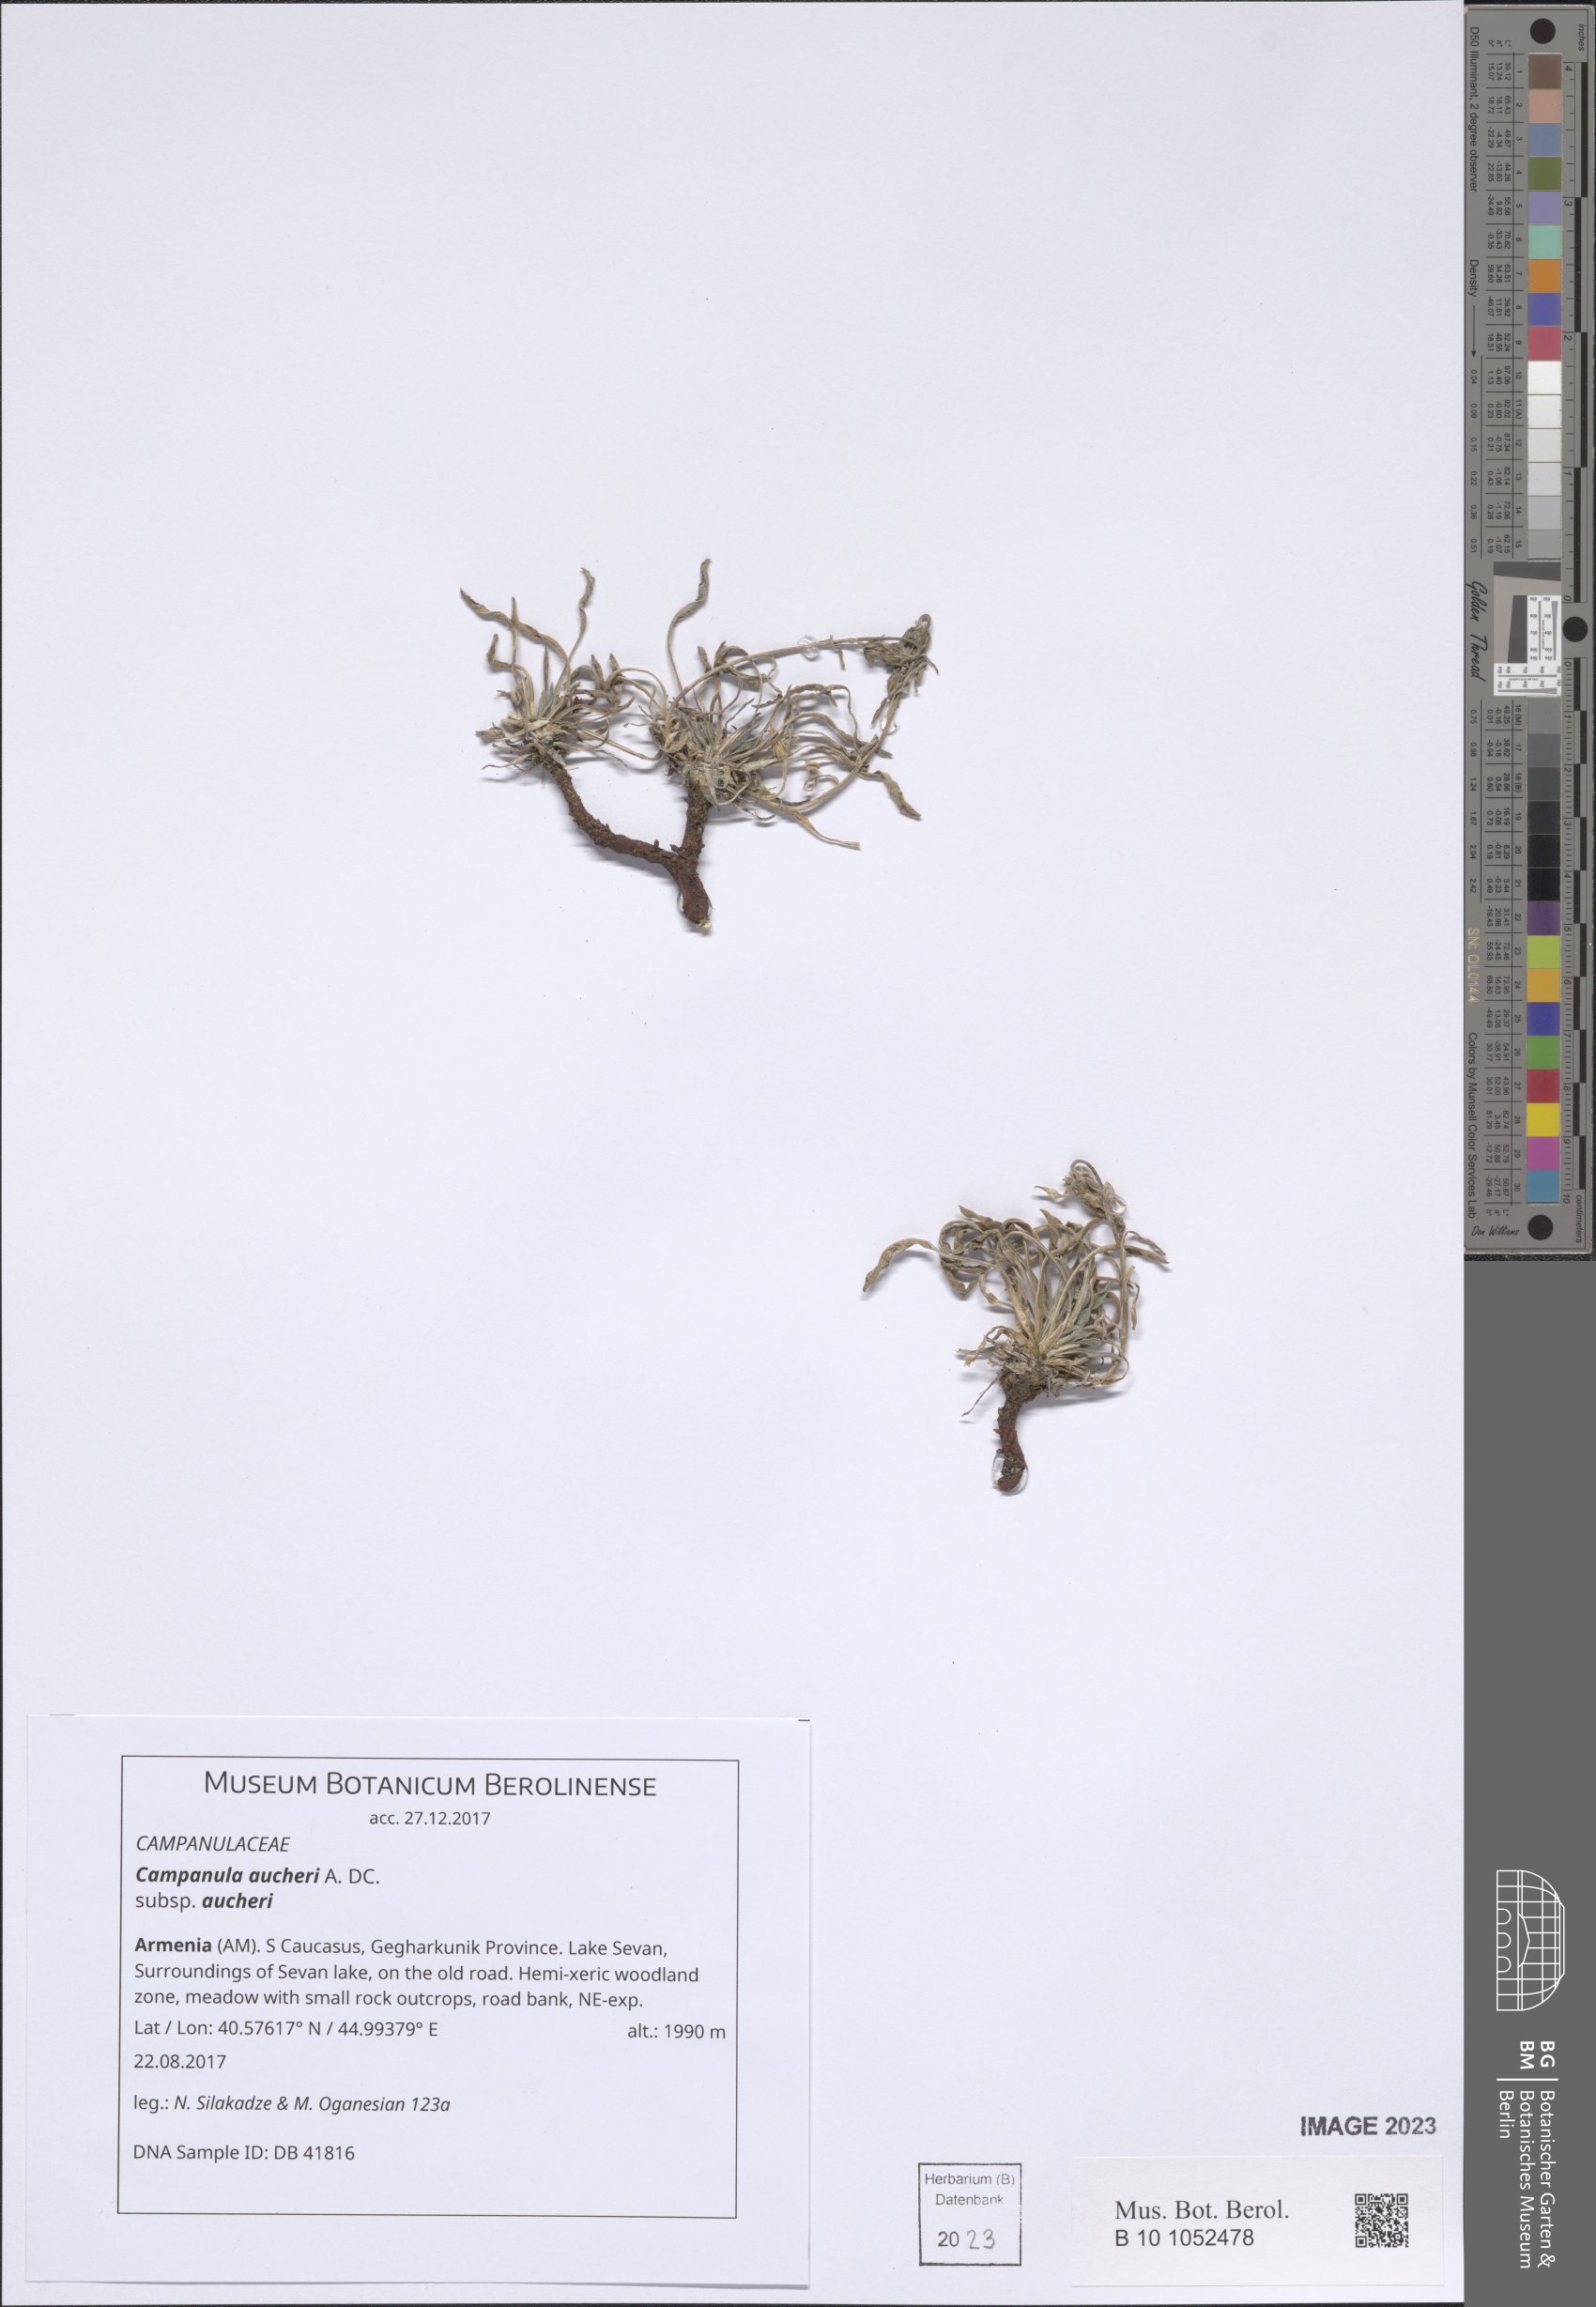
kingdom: Plantae
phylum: Tracheophyta
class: Magnoliopsida
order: Asterales
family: Campanulaceae
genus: Campanula
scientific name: Campanula saxifraga
